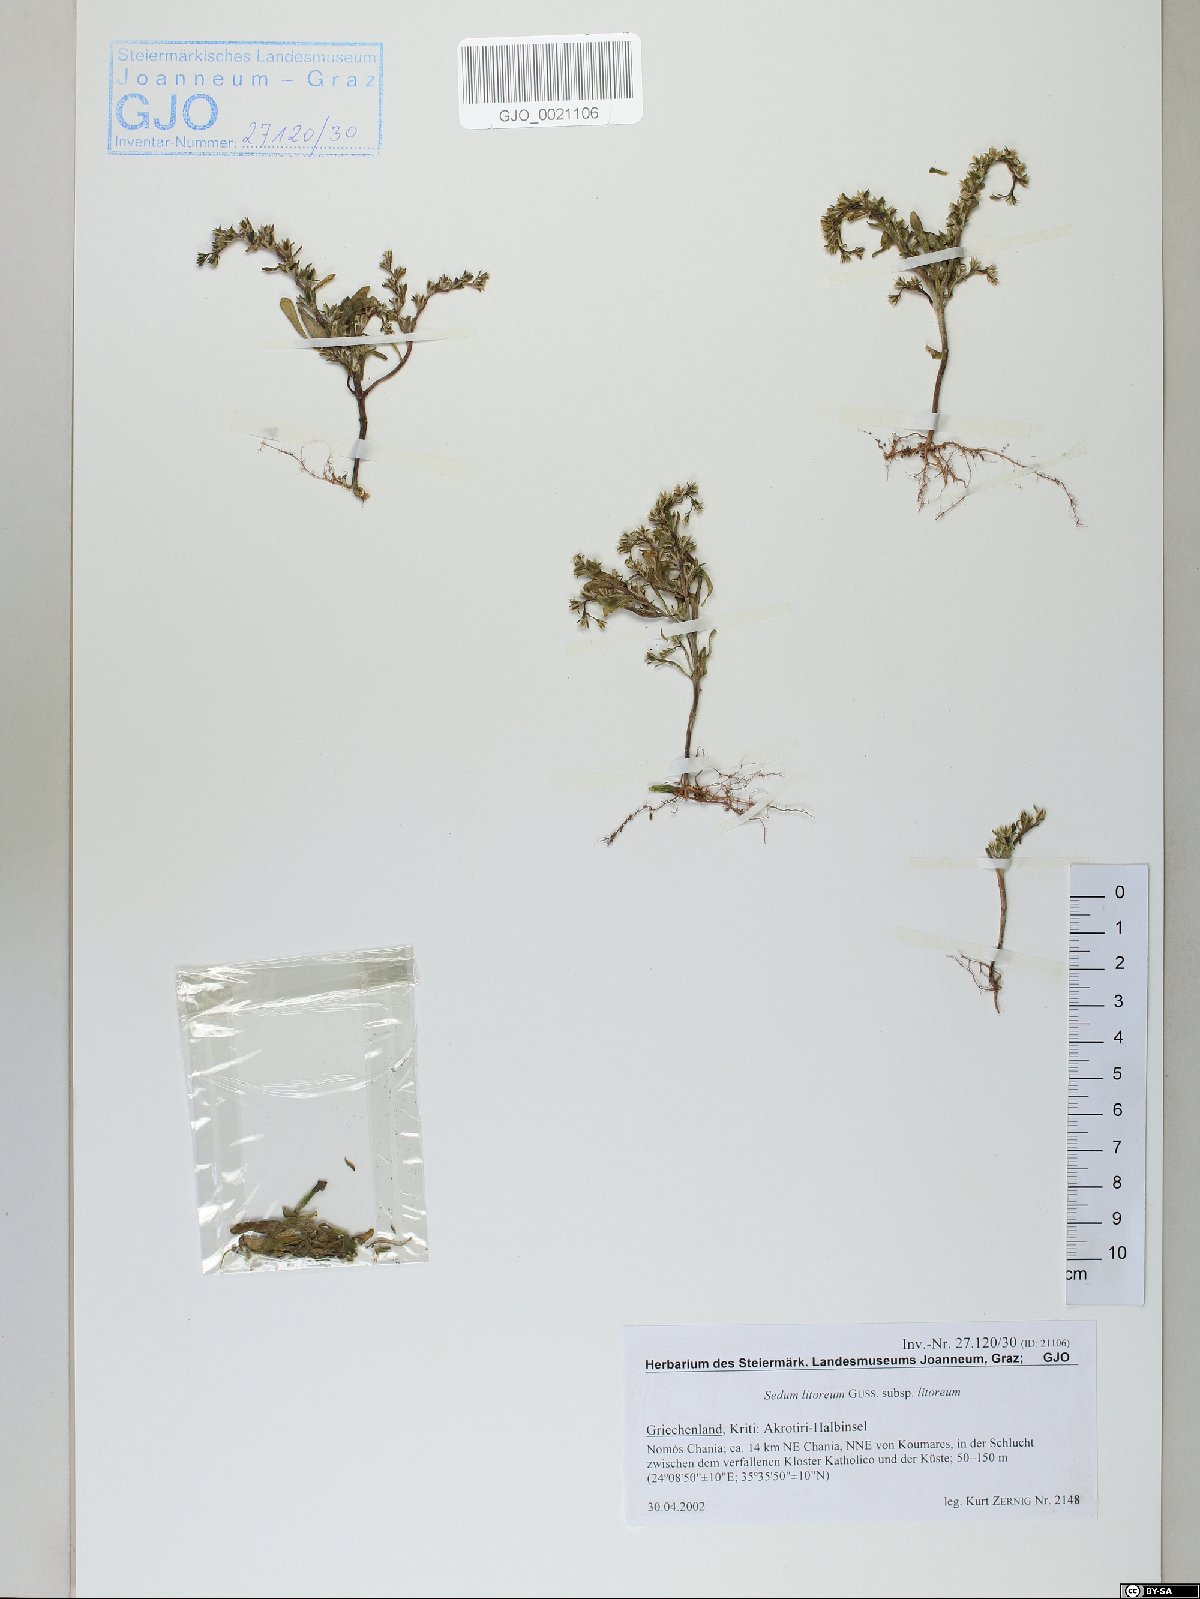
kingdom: Plantae
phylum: Tracheophyta
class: Magnoliopsida
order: Saxifragales
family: Crassulaceae
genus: Sedum
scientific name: Sedum litoreum
